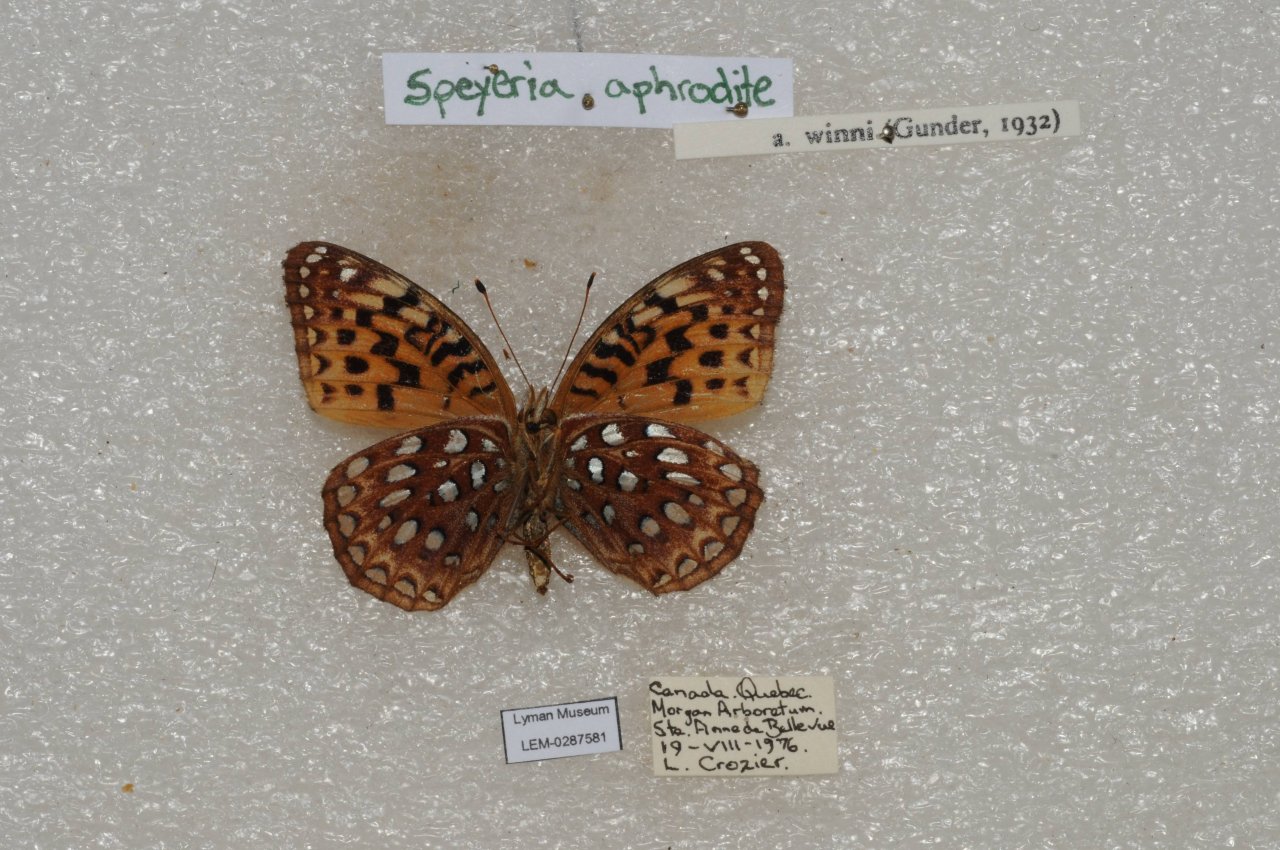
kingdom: Animalia
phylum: Arthropoda
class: Insecta
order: Lepidoptera
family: Nymphalidae
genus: Speyeria
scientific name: Speyeria aphrodite
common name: Aphrodite Fritillary
